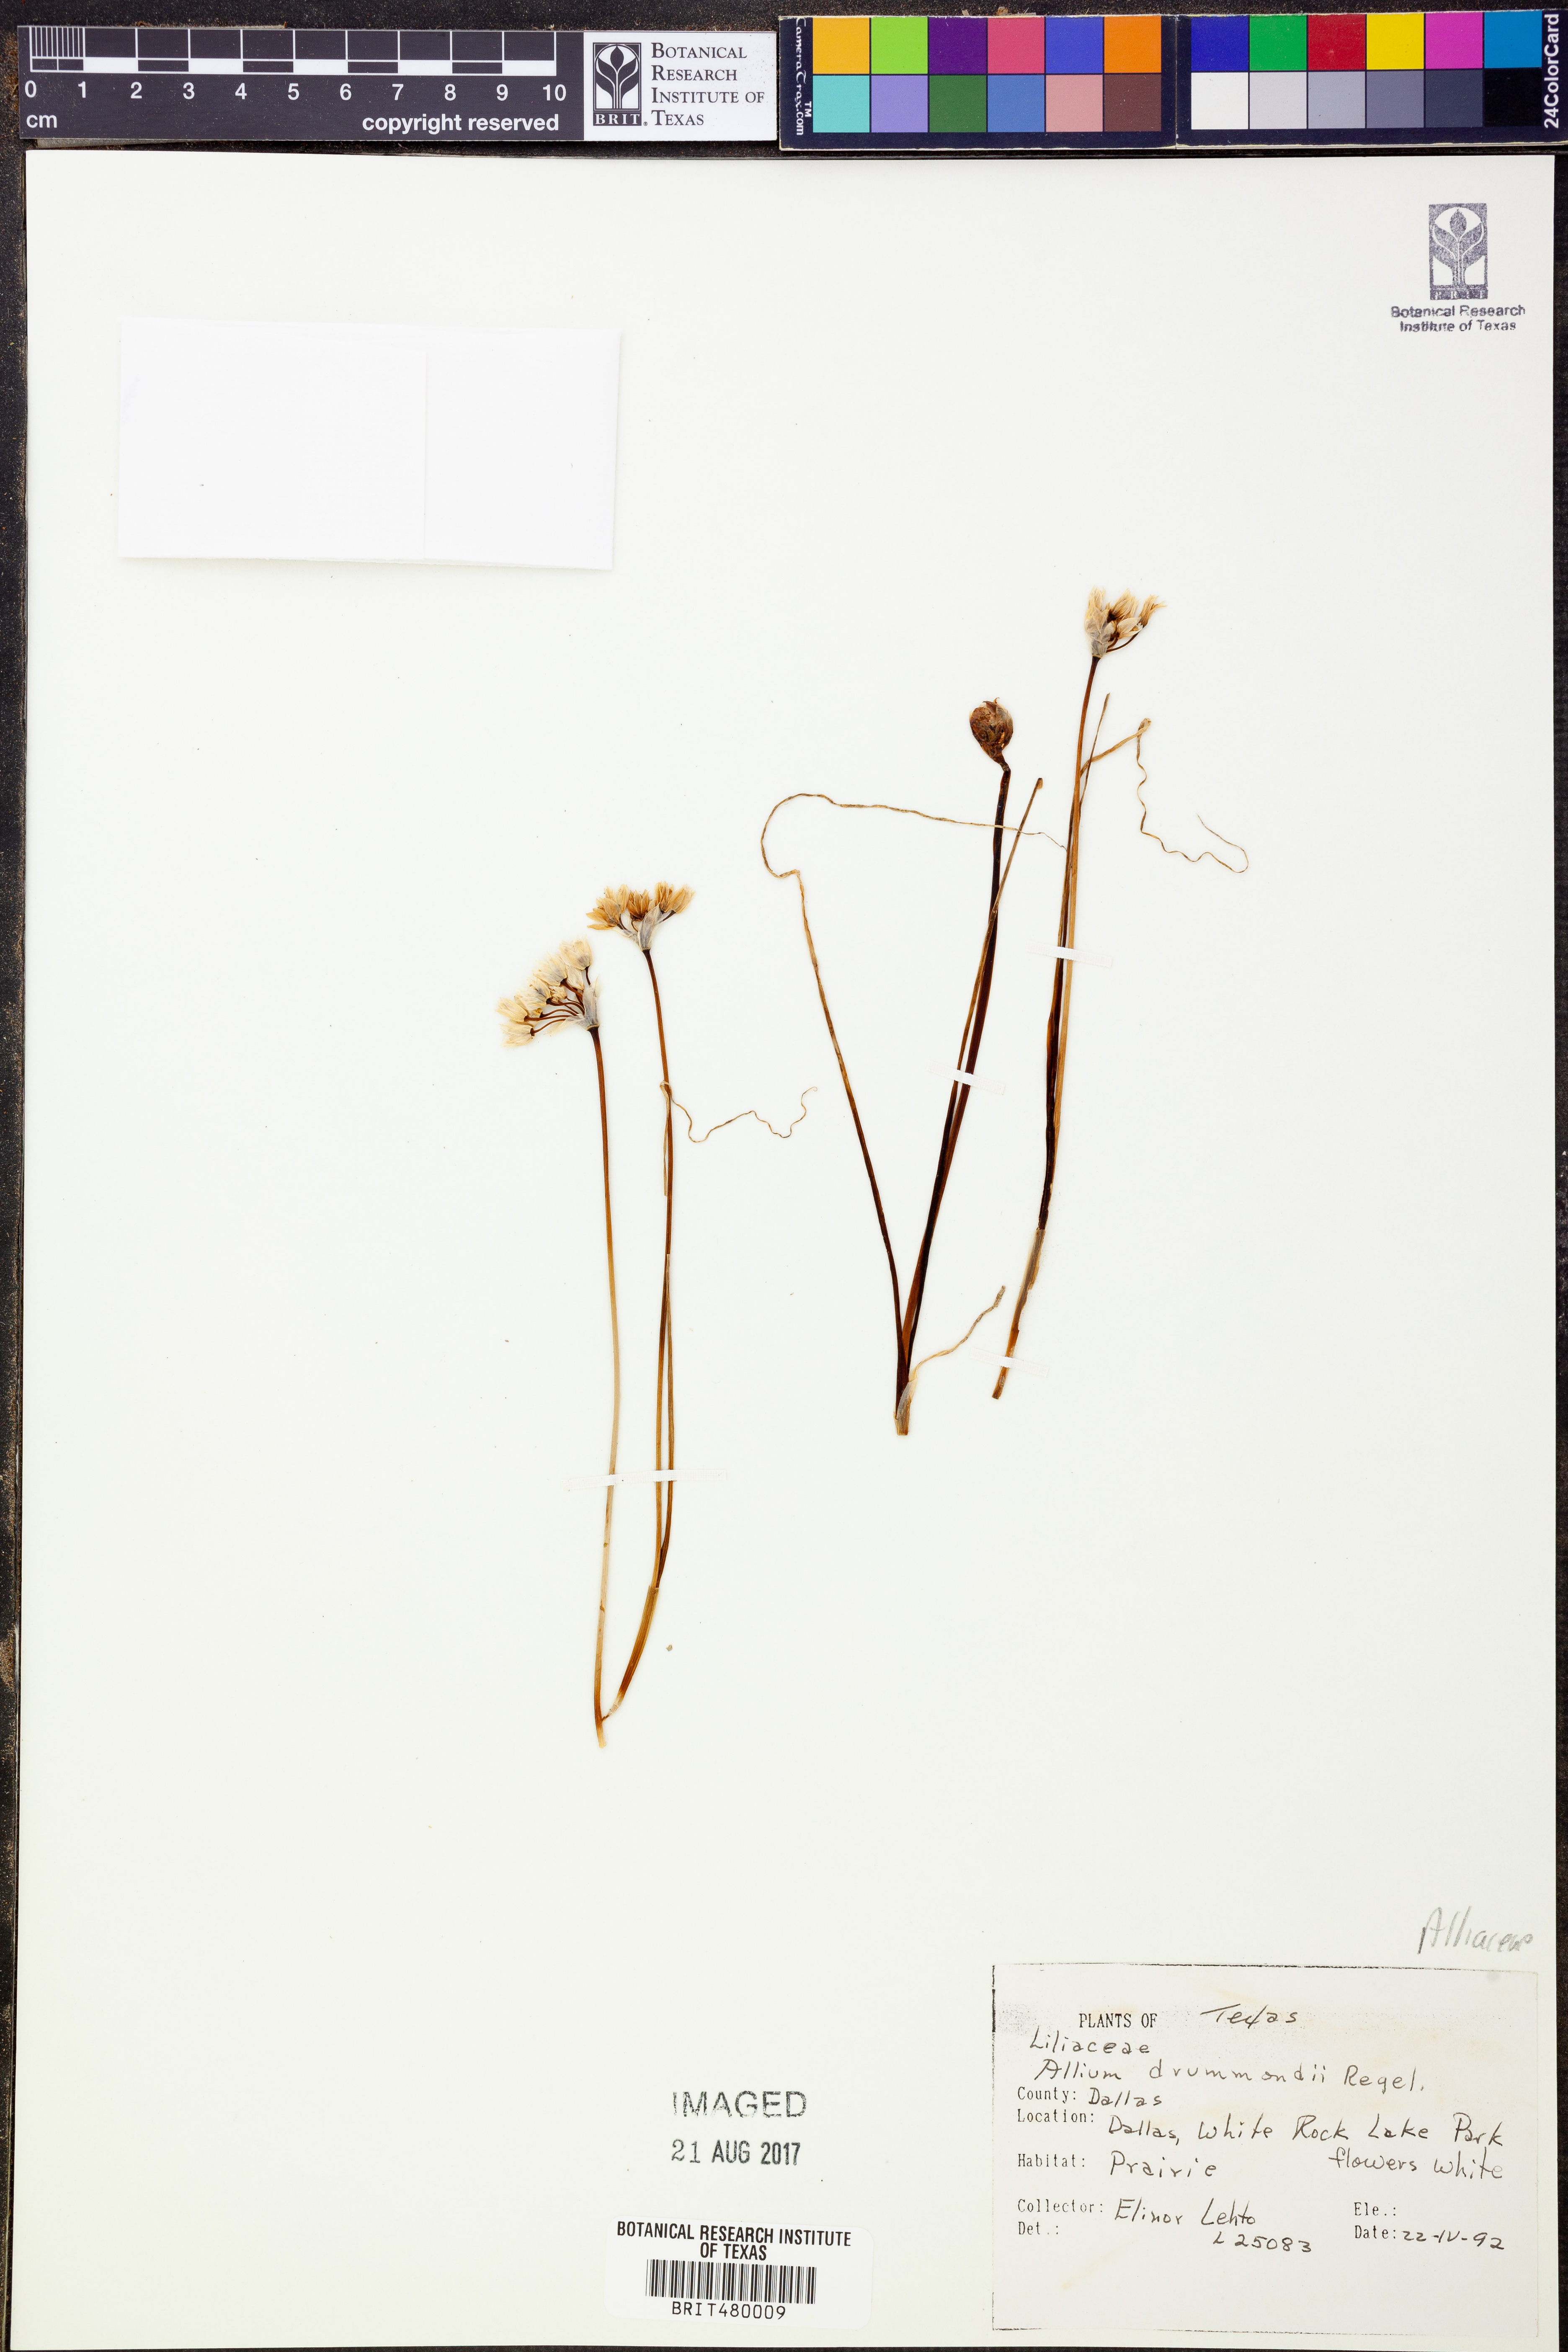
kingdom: Plantae
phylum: Tracheophyta
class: Liliopsida
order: Asparagales
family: Amaryllidaceae
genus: Allium
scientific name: Allium drummondii
